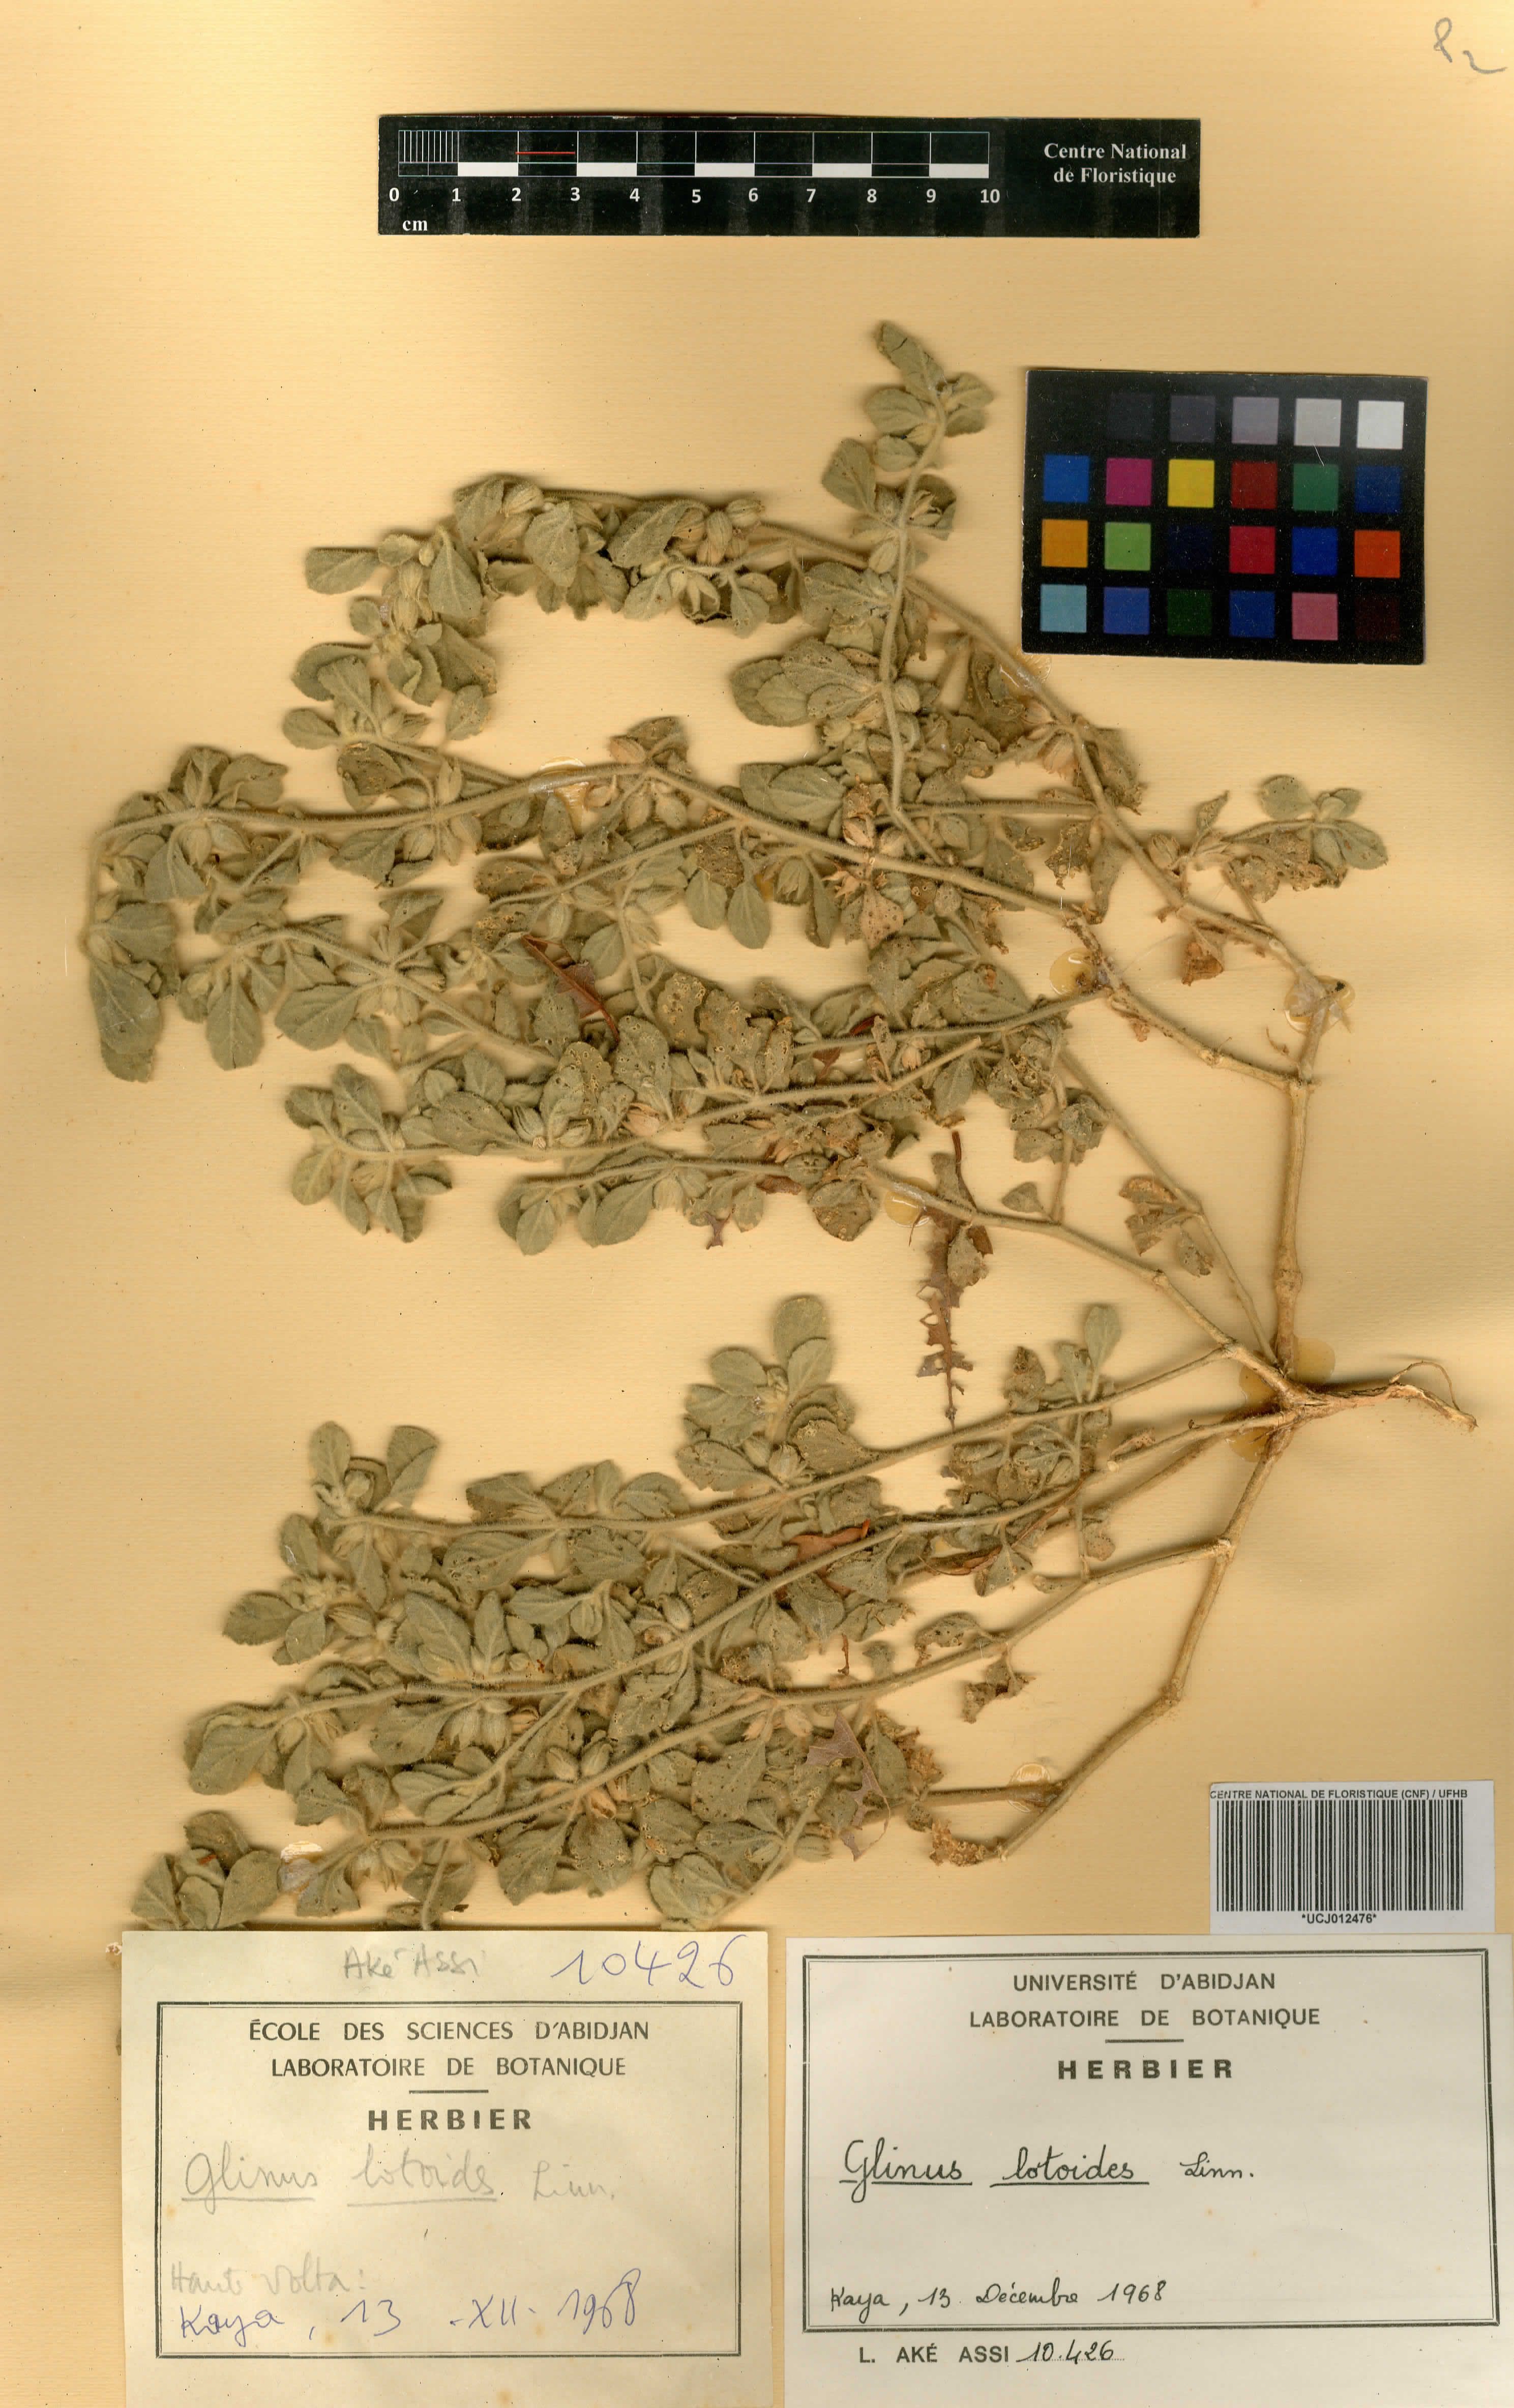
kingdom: Plantae
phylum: Tracheophyta
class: Magnoliopsida
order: Caryophyllales
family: Molluginaceae
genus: Glinus
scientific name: Glinus lotoides
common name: Lotus sweetjuice
